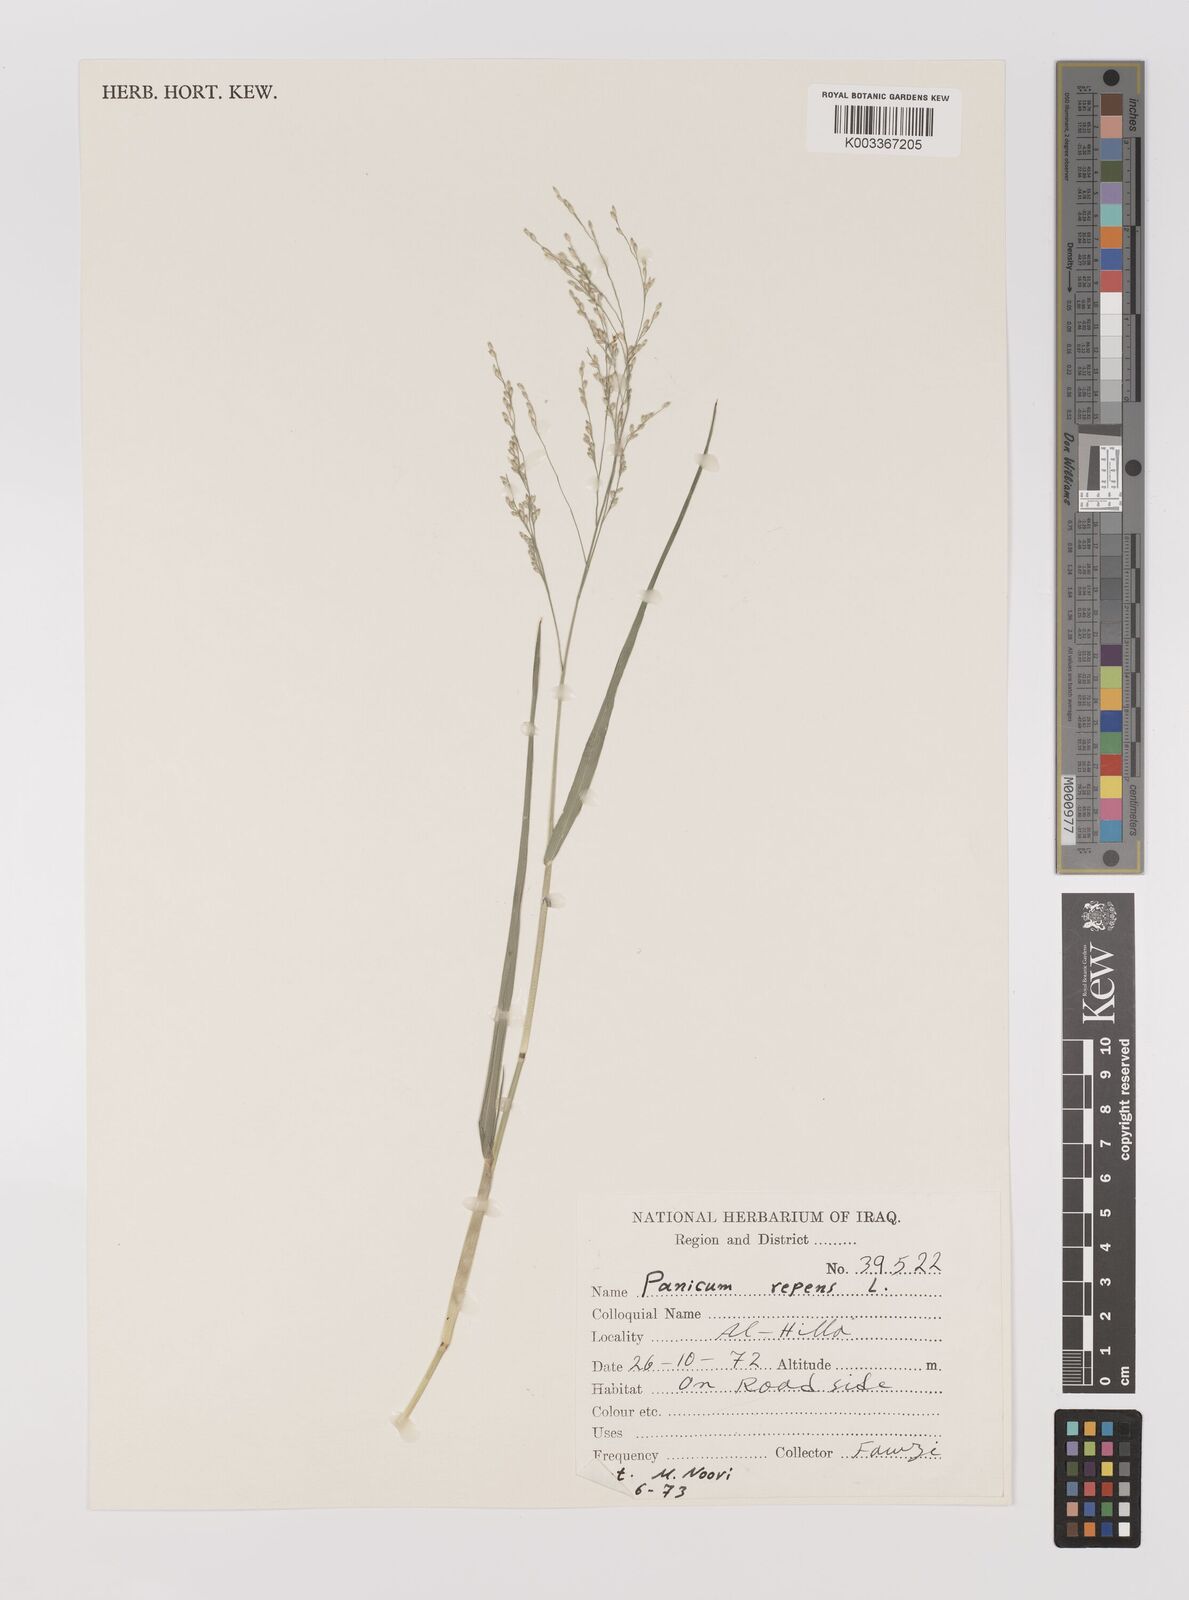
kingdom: Plantae
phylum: Tracheophyta
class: Liliopsida
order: Poales
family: Poaceae
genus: Panicum
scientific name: Panicum repens
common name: Torpedo grass
